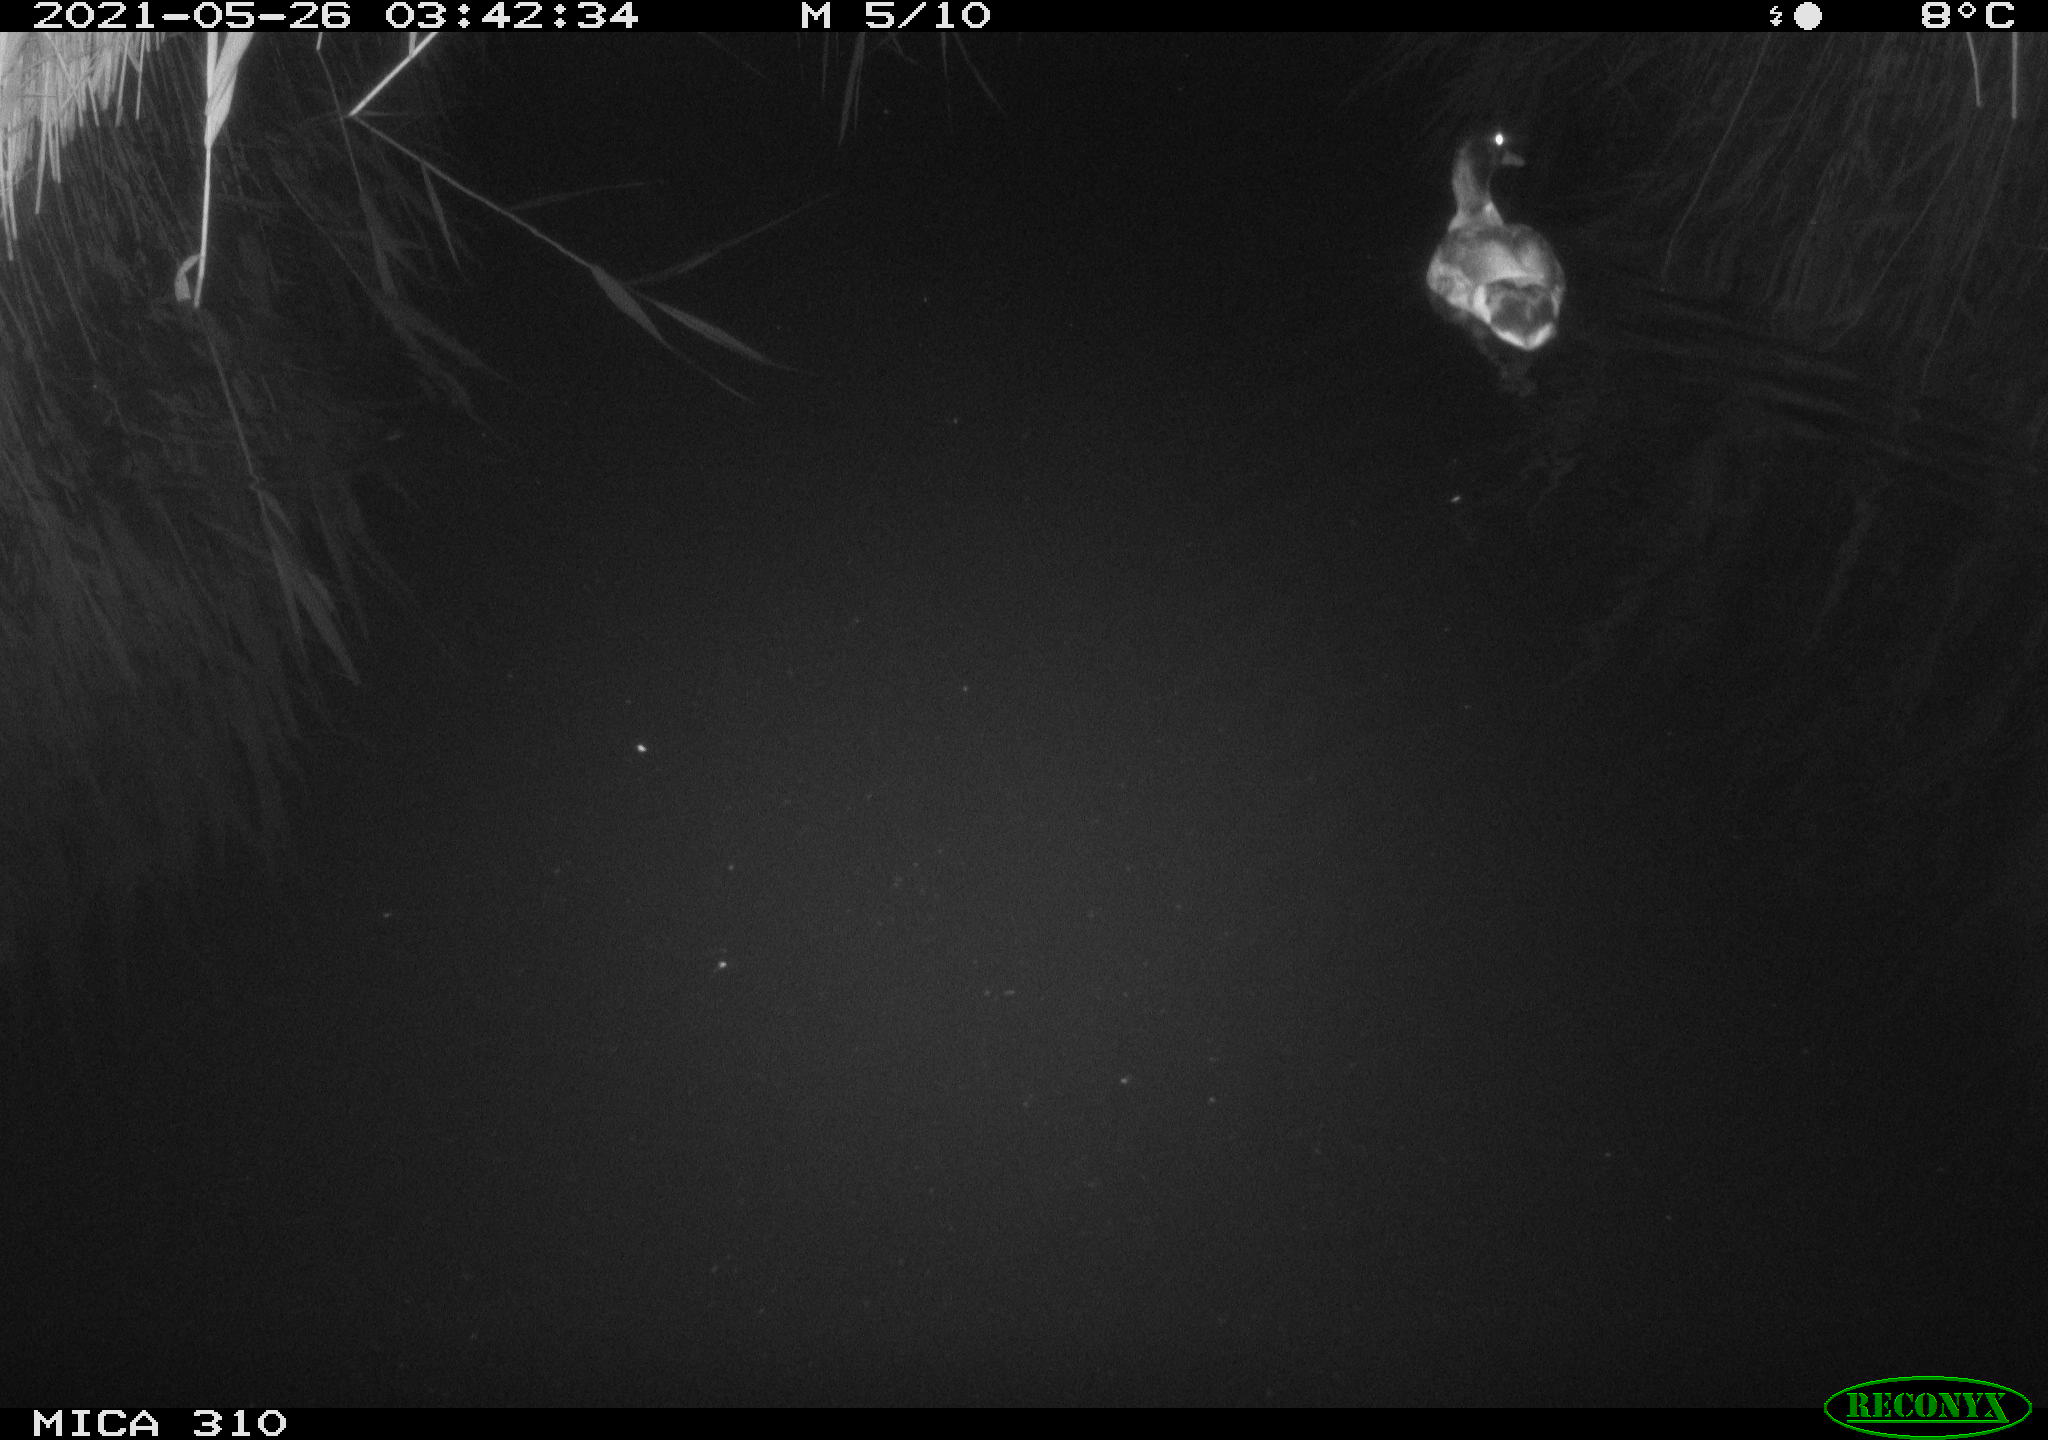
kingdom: Animalia
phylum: Chordata
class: Aves
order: Anseriformes
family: Anatidae
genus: Anas
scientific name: Anas platyrhynchos
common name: Mallard
